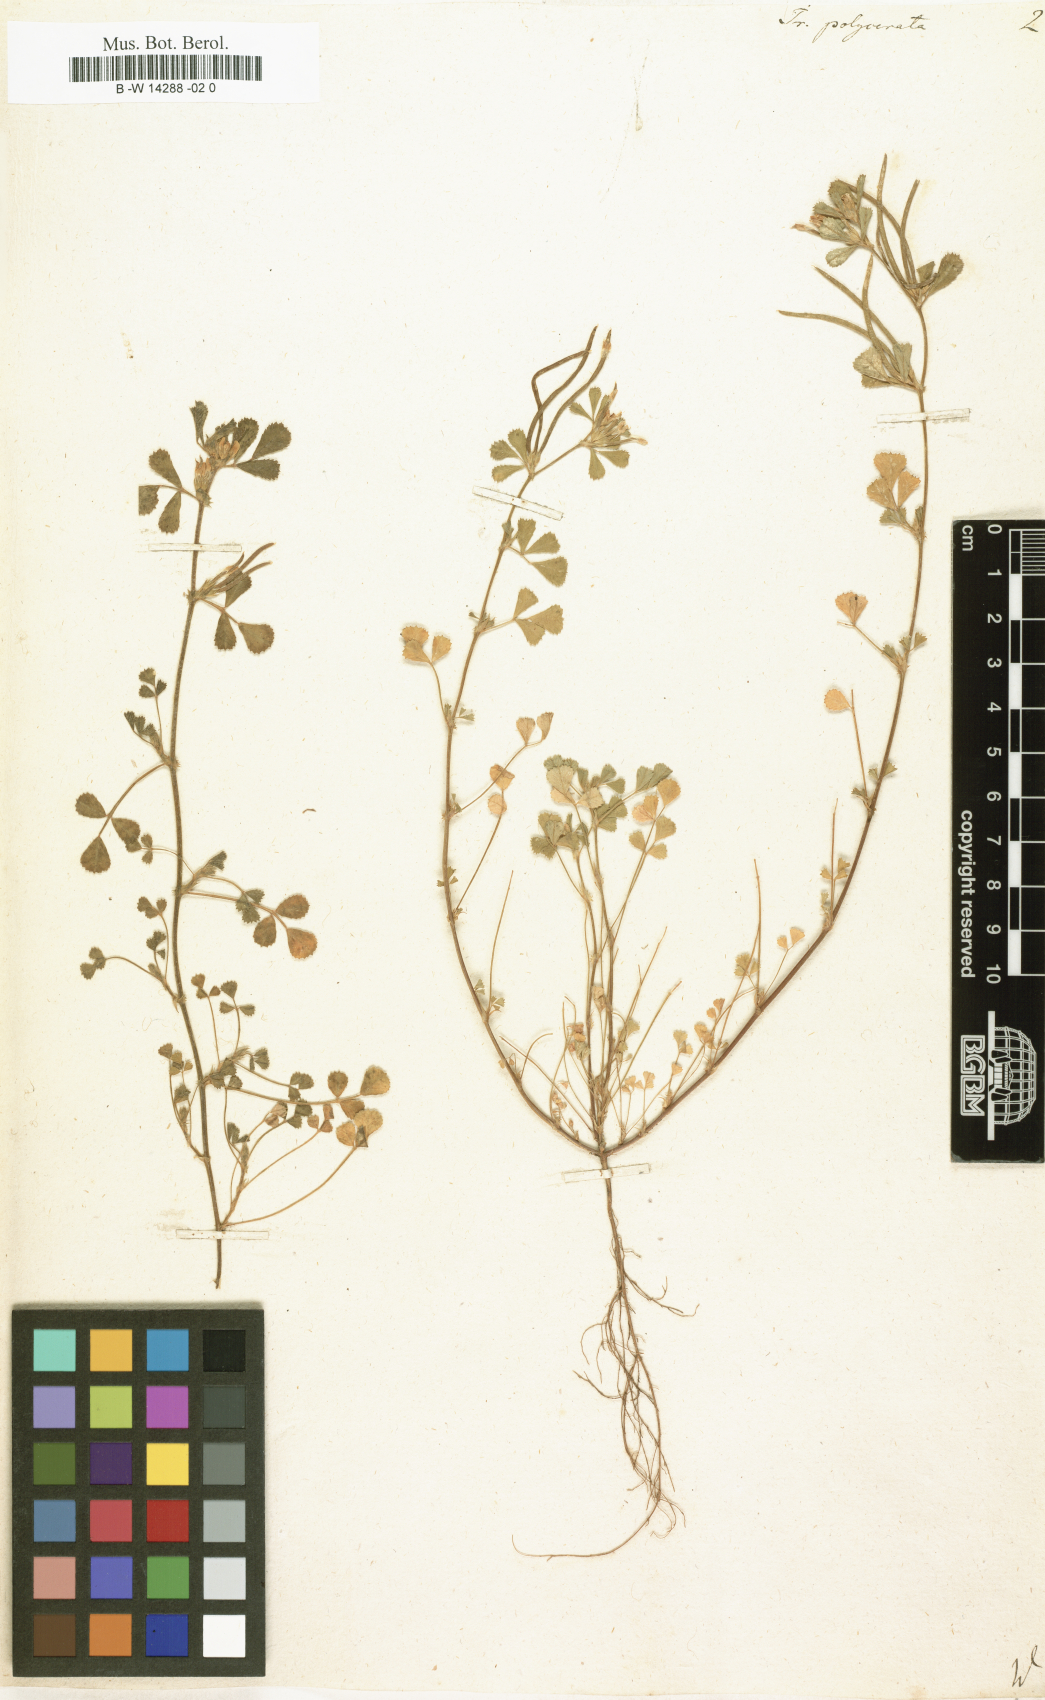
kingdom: Plantae
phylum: Tracheophyta
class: Magnoliopsida
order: Fabales
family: Fabaceae
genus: Medicago
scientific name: Medicago orthoceras
